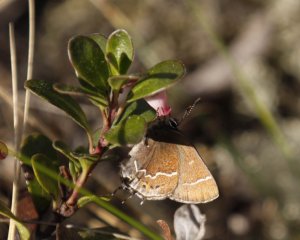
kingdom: Animalia
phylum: Arthropoda
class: Insecta
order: Lepidoptera
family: Lycaenidae
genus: Mitoura
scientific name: Mitoura spinetorum
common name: Thicket Hairstreak
